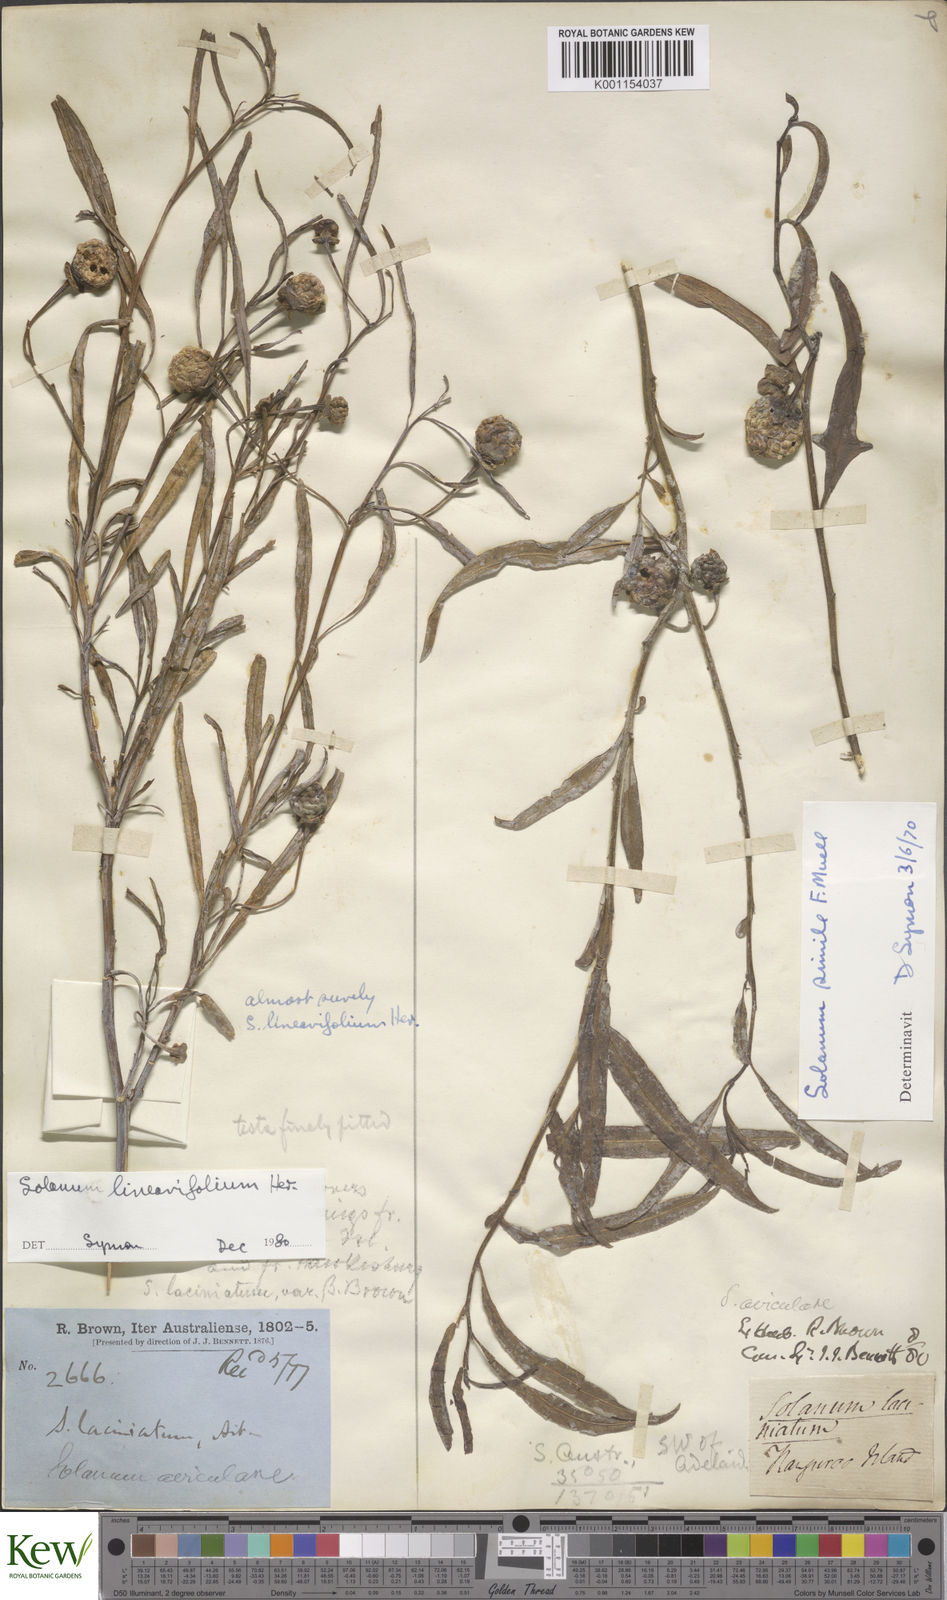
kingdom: Plantae
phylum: Tracheophyta
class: Magnoliopsida
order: Solanales
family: Solanaceae
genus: Solanum
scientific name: Solanum linearifolium
